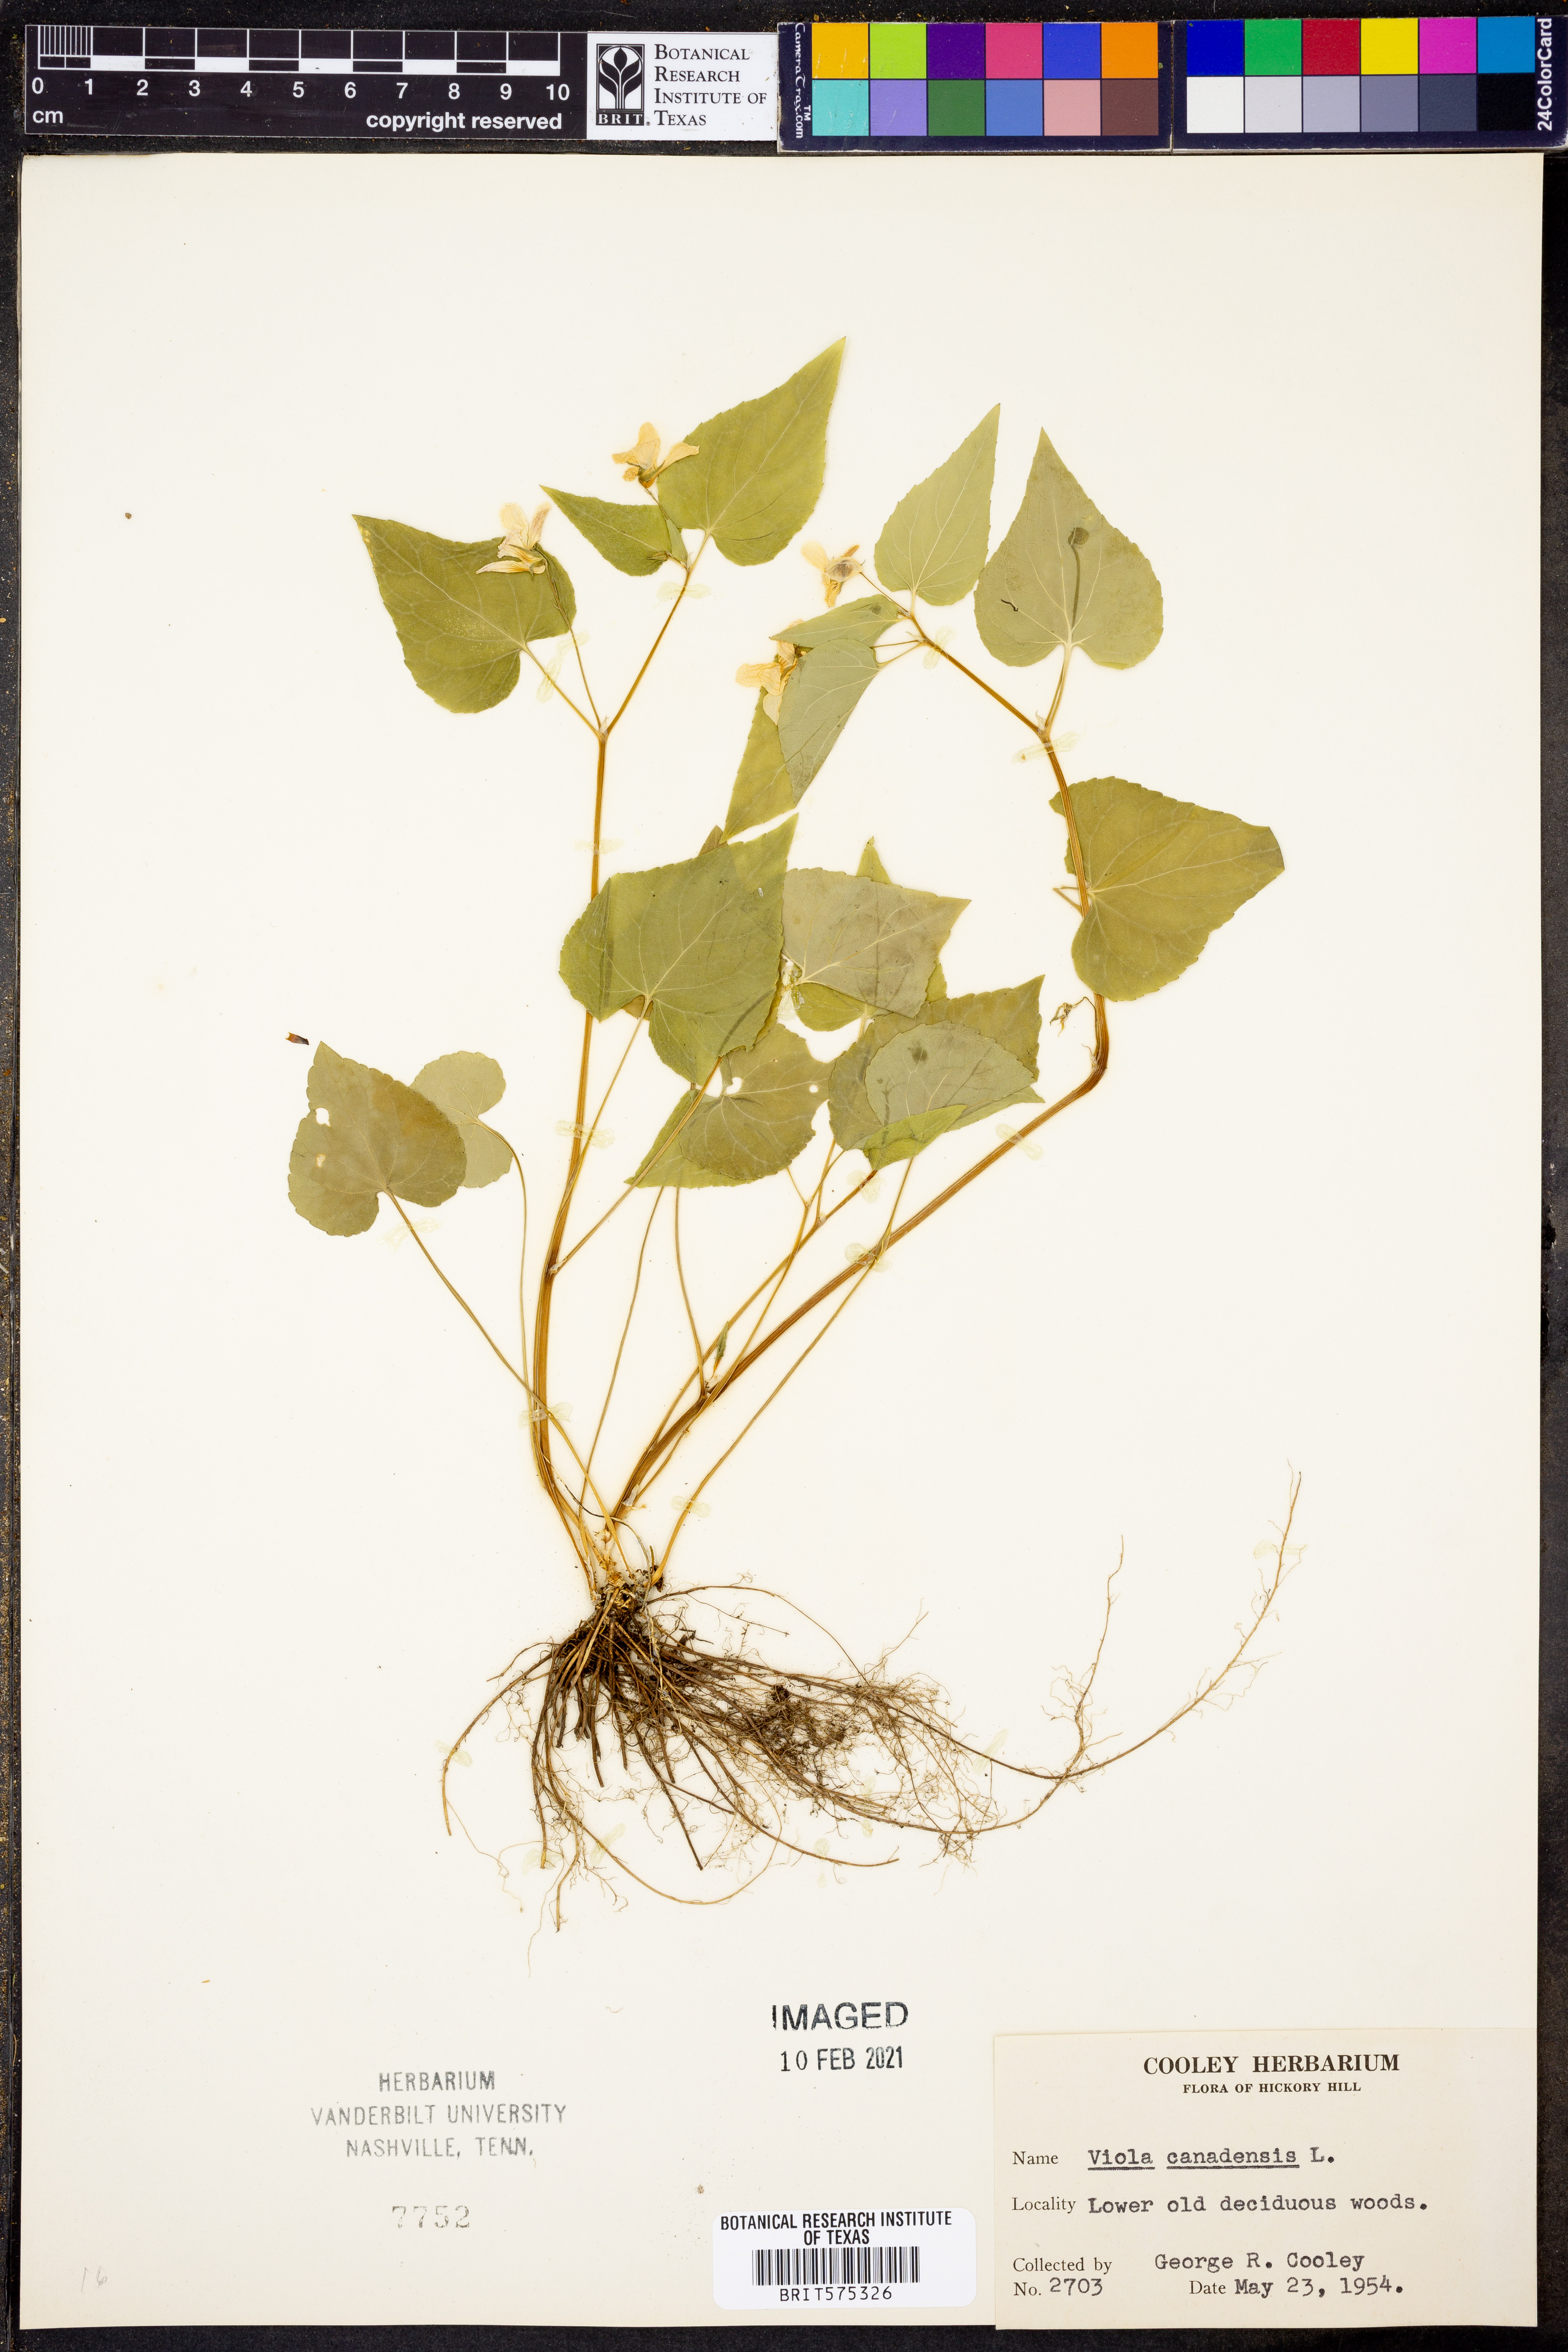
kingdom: Plantae
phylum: Tracheophyta
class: Magnoliopsida
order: Malpighiales
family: Violaceae
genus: Viola
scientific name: Viola canadensis
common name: Canada violet
